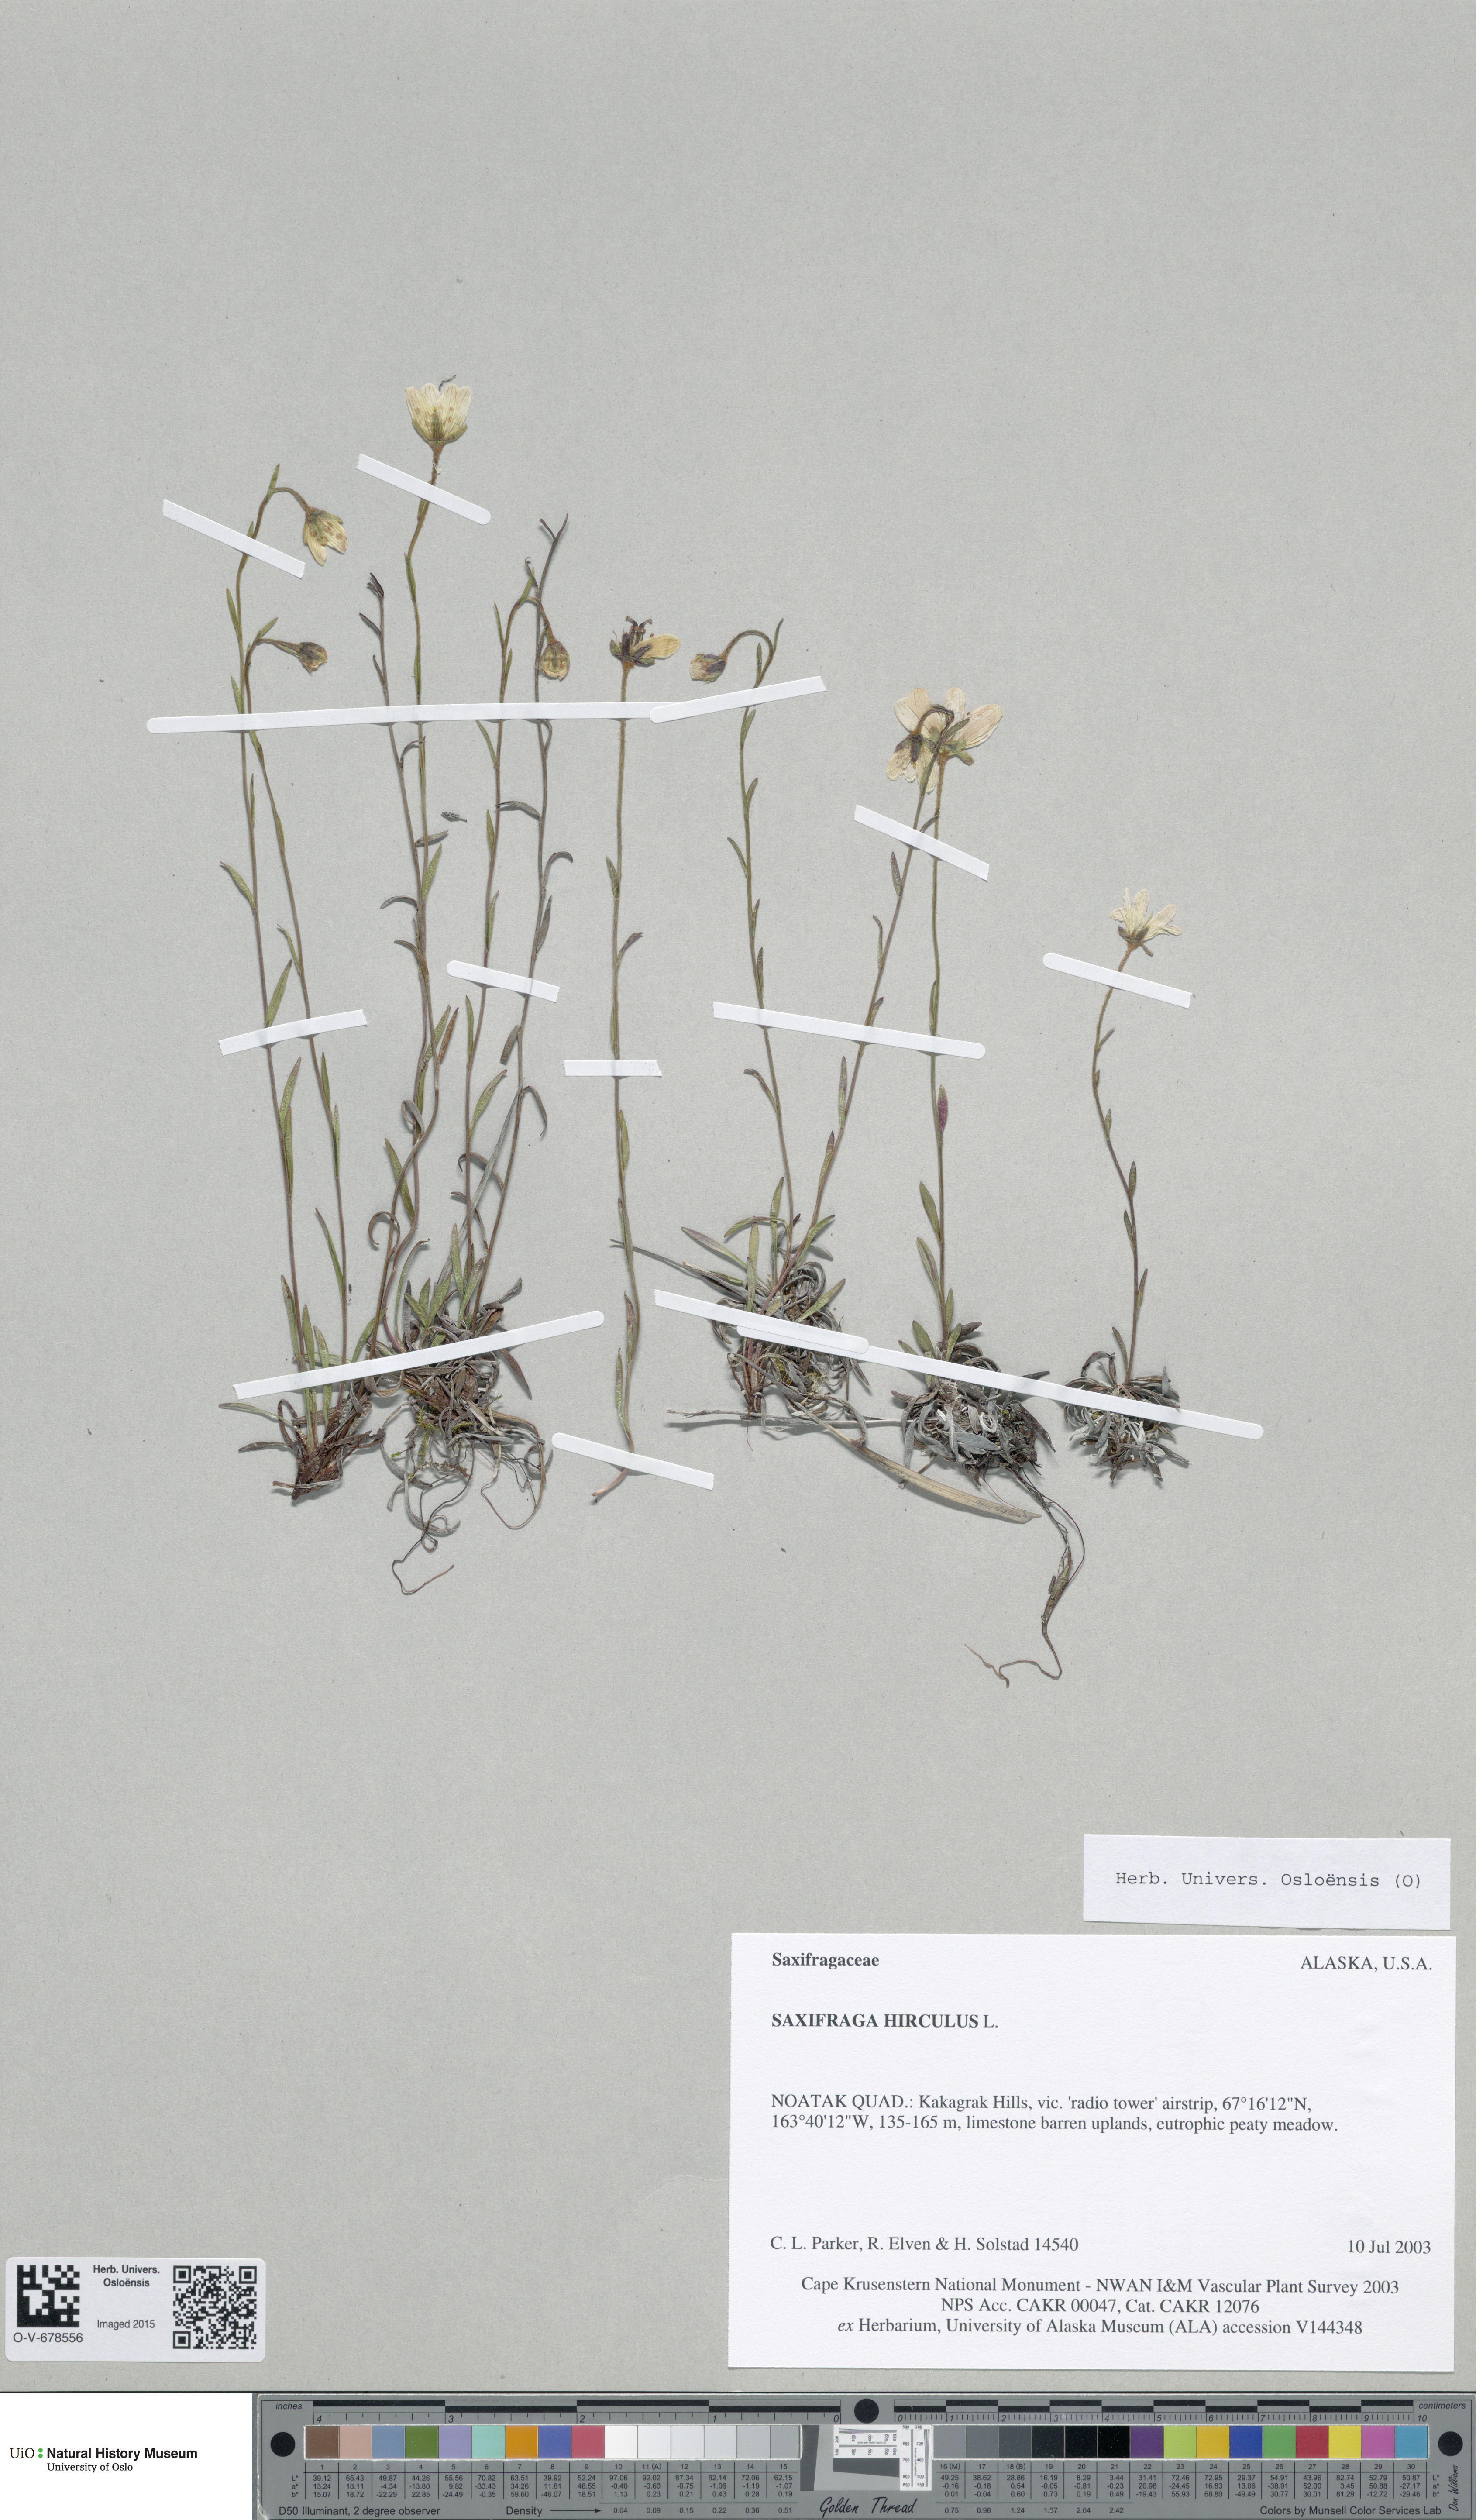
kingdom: Plantae
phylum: Tracheophyta
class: Magnoliopsida
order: Saxifragales
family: Saxifragaceae
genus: Saxifraga
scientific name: Saxifraga hirculus
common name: Yellow marsh saxifrage
